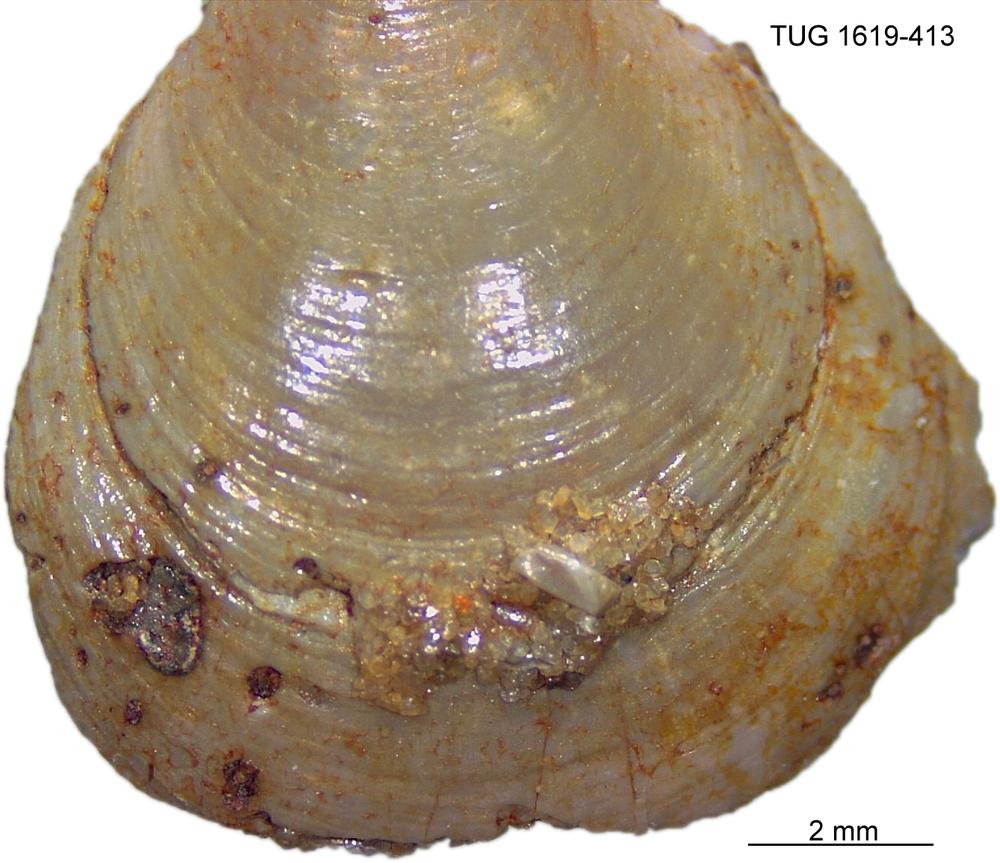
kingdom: Animalia
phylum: Porifera
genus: Ungula
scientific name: Ungula
